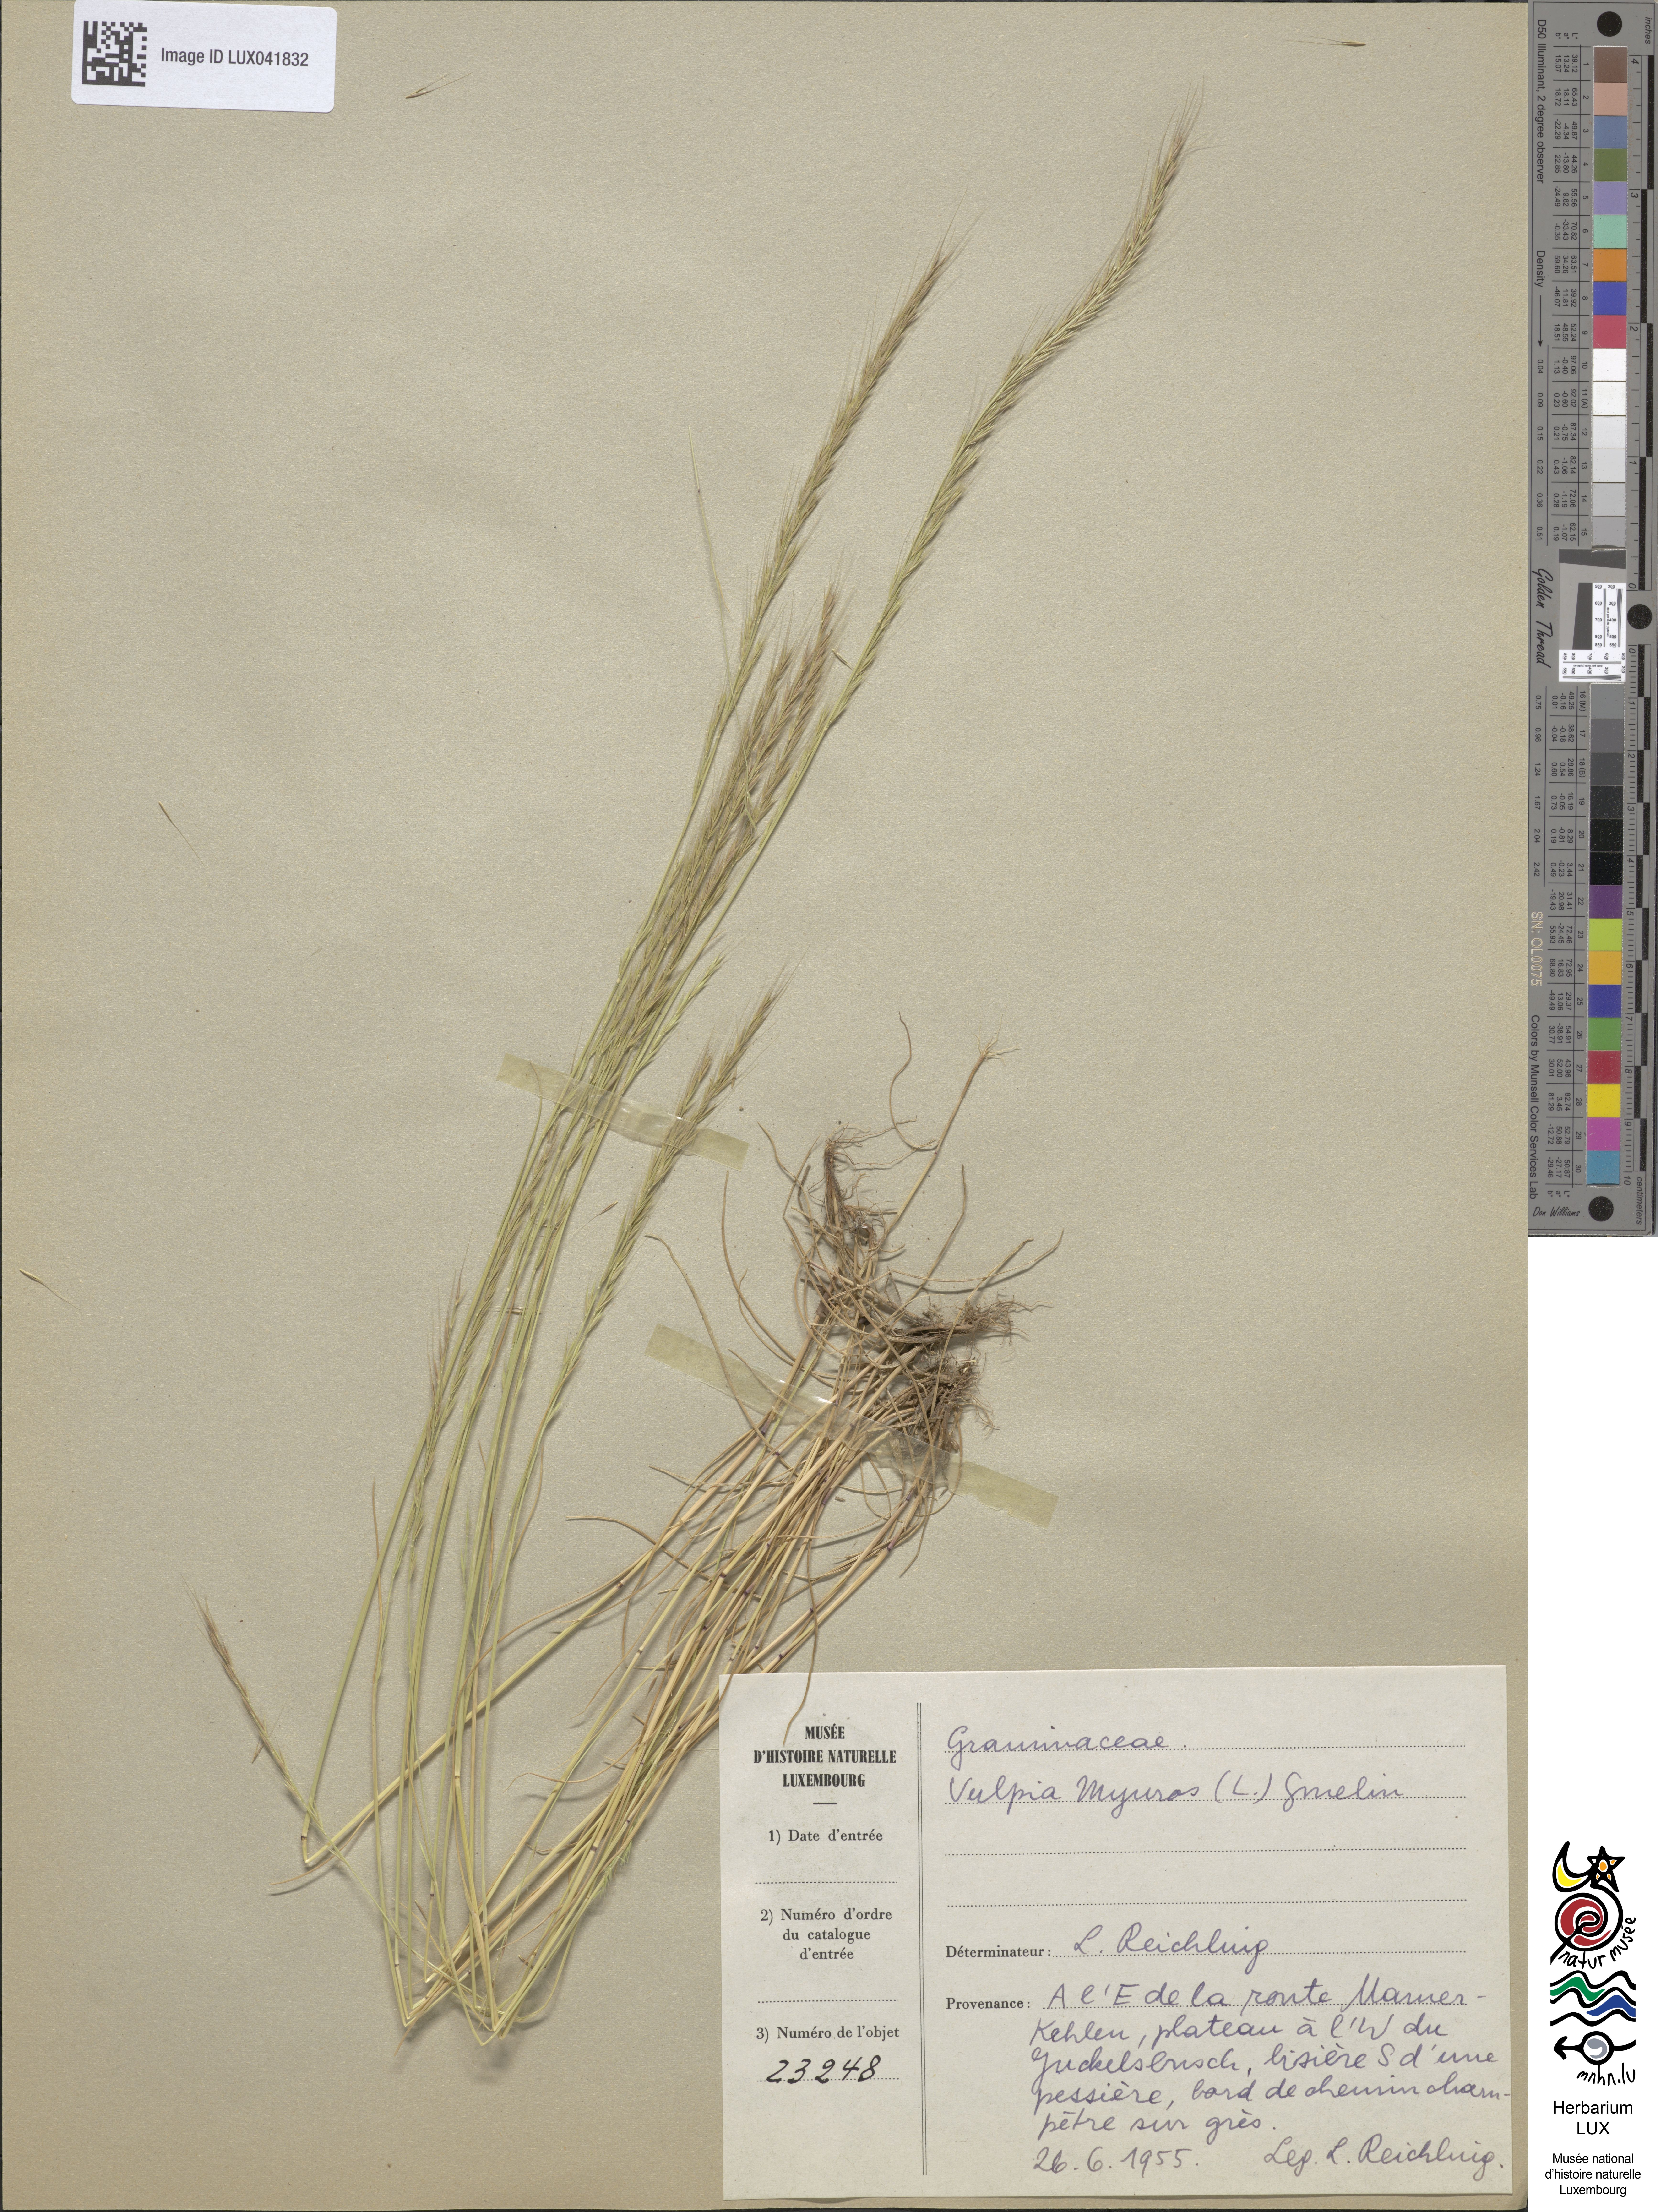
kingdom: Plantae
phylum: Tracheophyta
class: Liliopsida
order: Poales
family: Poaceae
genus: Festuca
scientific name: Festuca myuros
